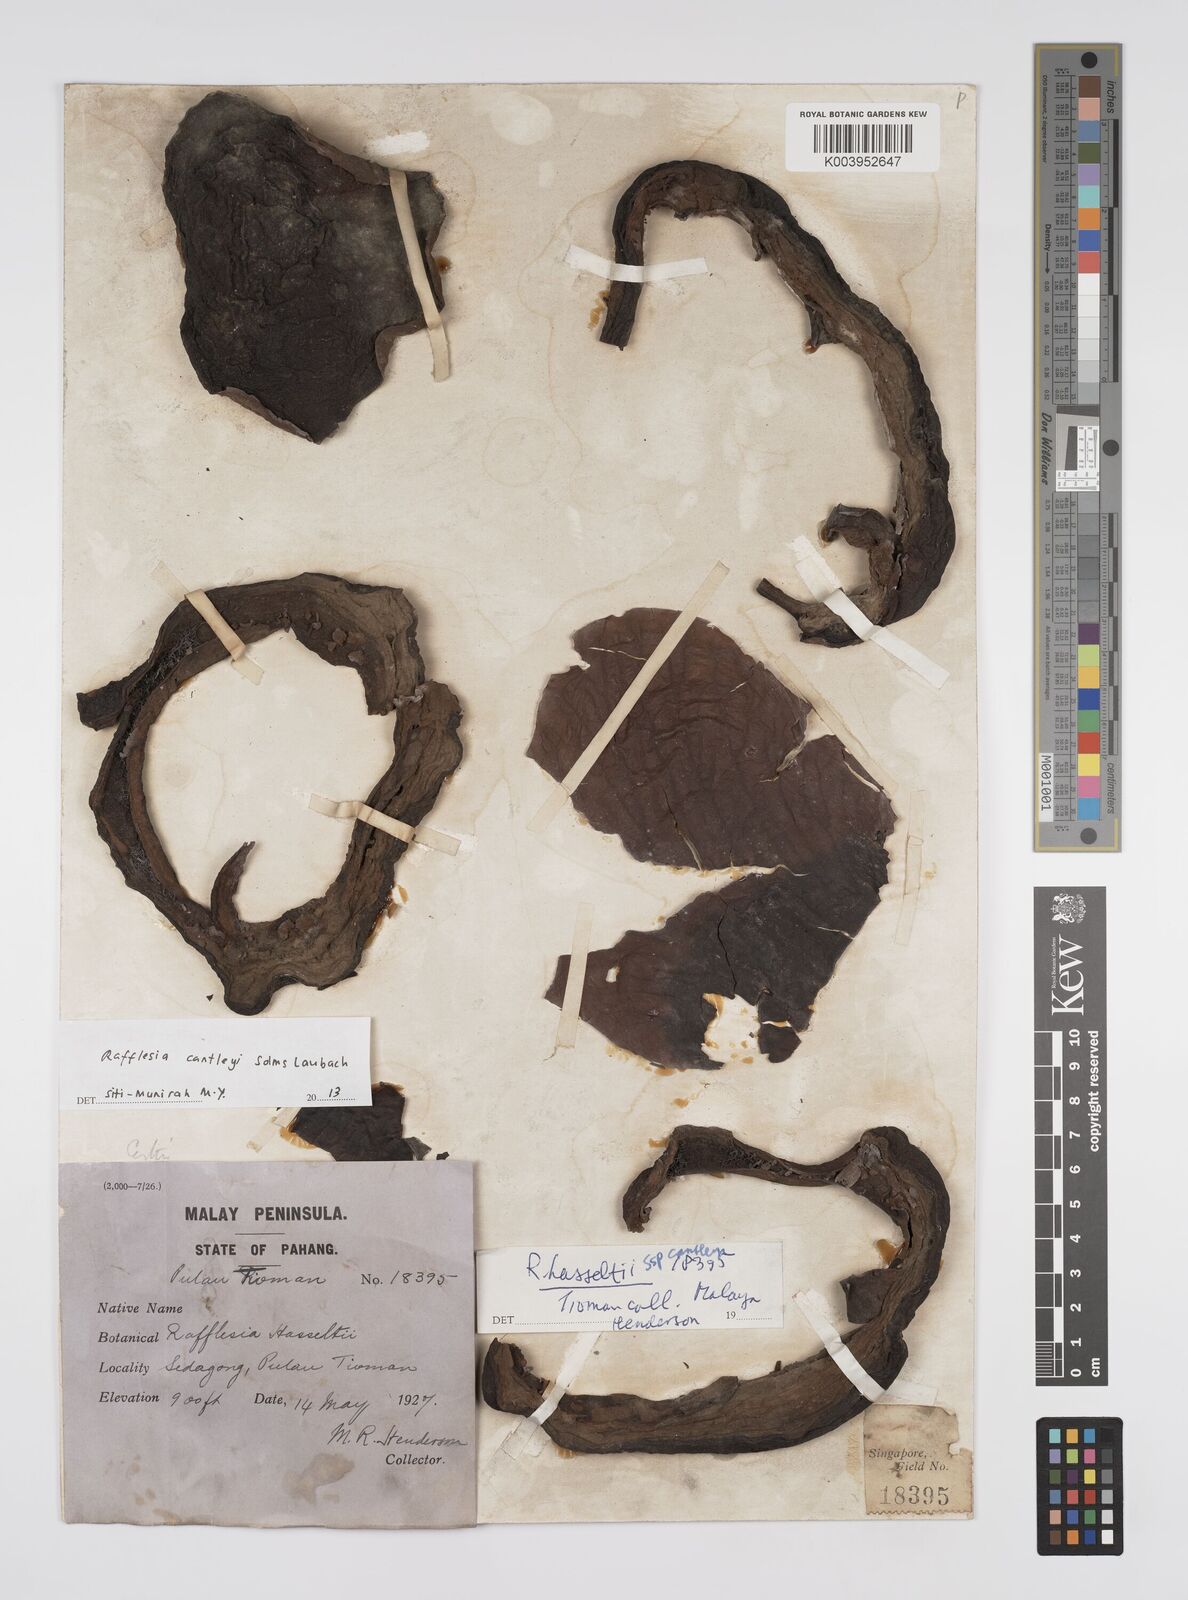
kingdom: Plantae
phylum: Tracheophyta
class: Magnoliopsida
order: Malpighiales
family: Rafflesiaceae
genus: Rafflesia
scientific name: Rafflesia cantleyi
